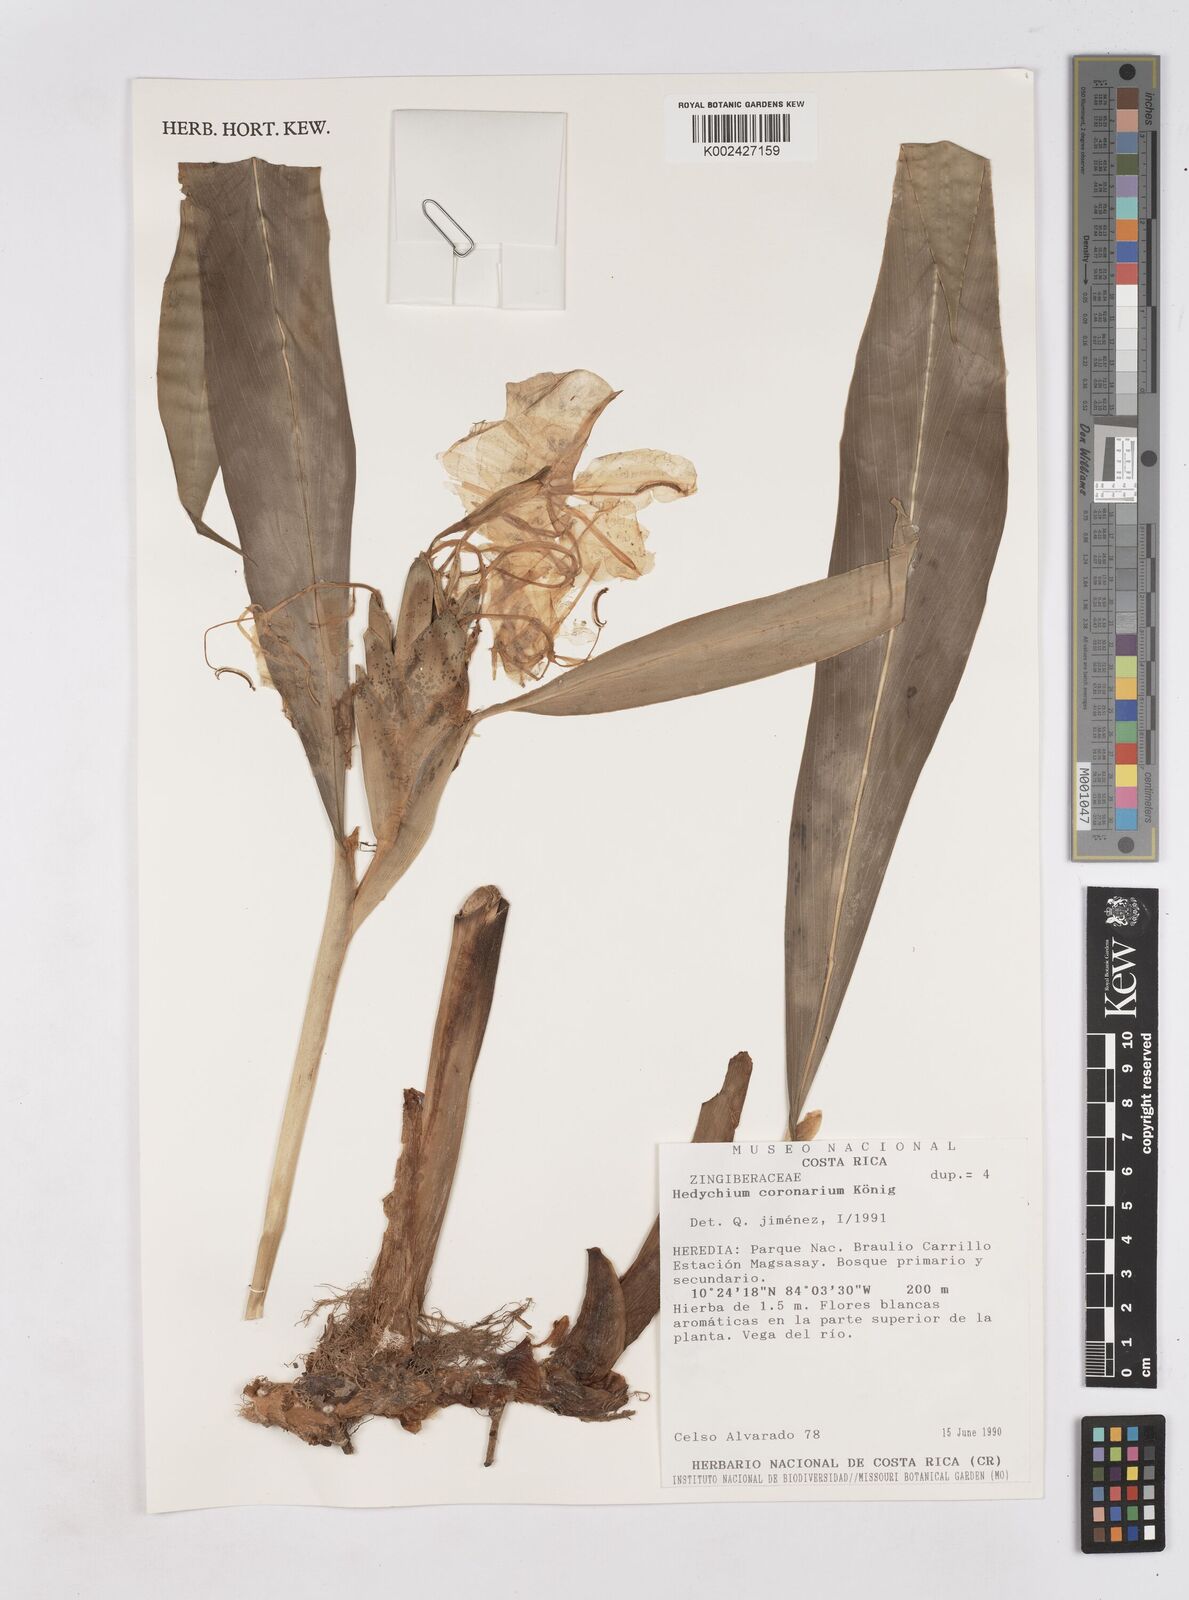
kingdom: Plantae
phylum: Tracheophyta
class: Liliopsida
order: Zingiberales
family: Zingiberaceae
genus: Hedychium
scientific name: Hedychium coronarium
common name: White garland-lily
